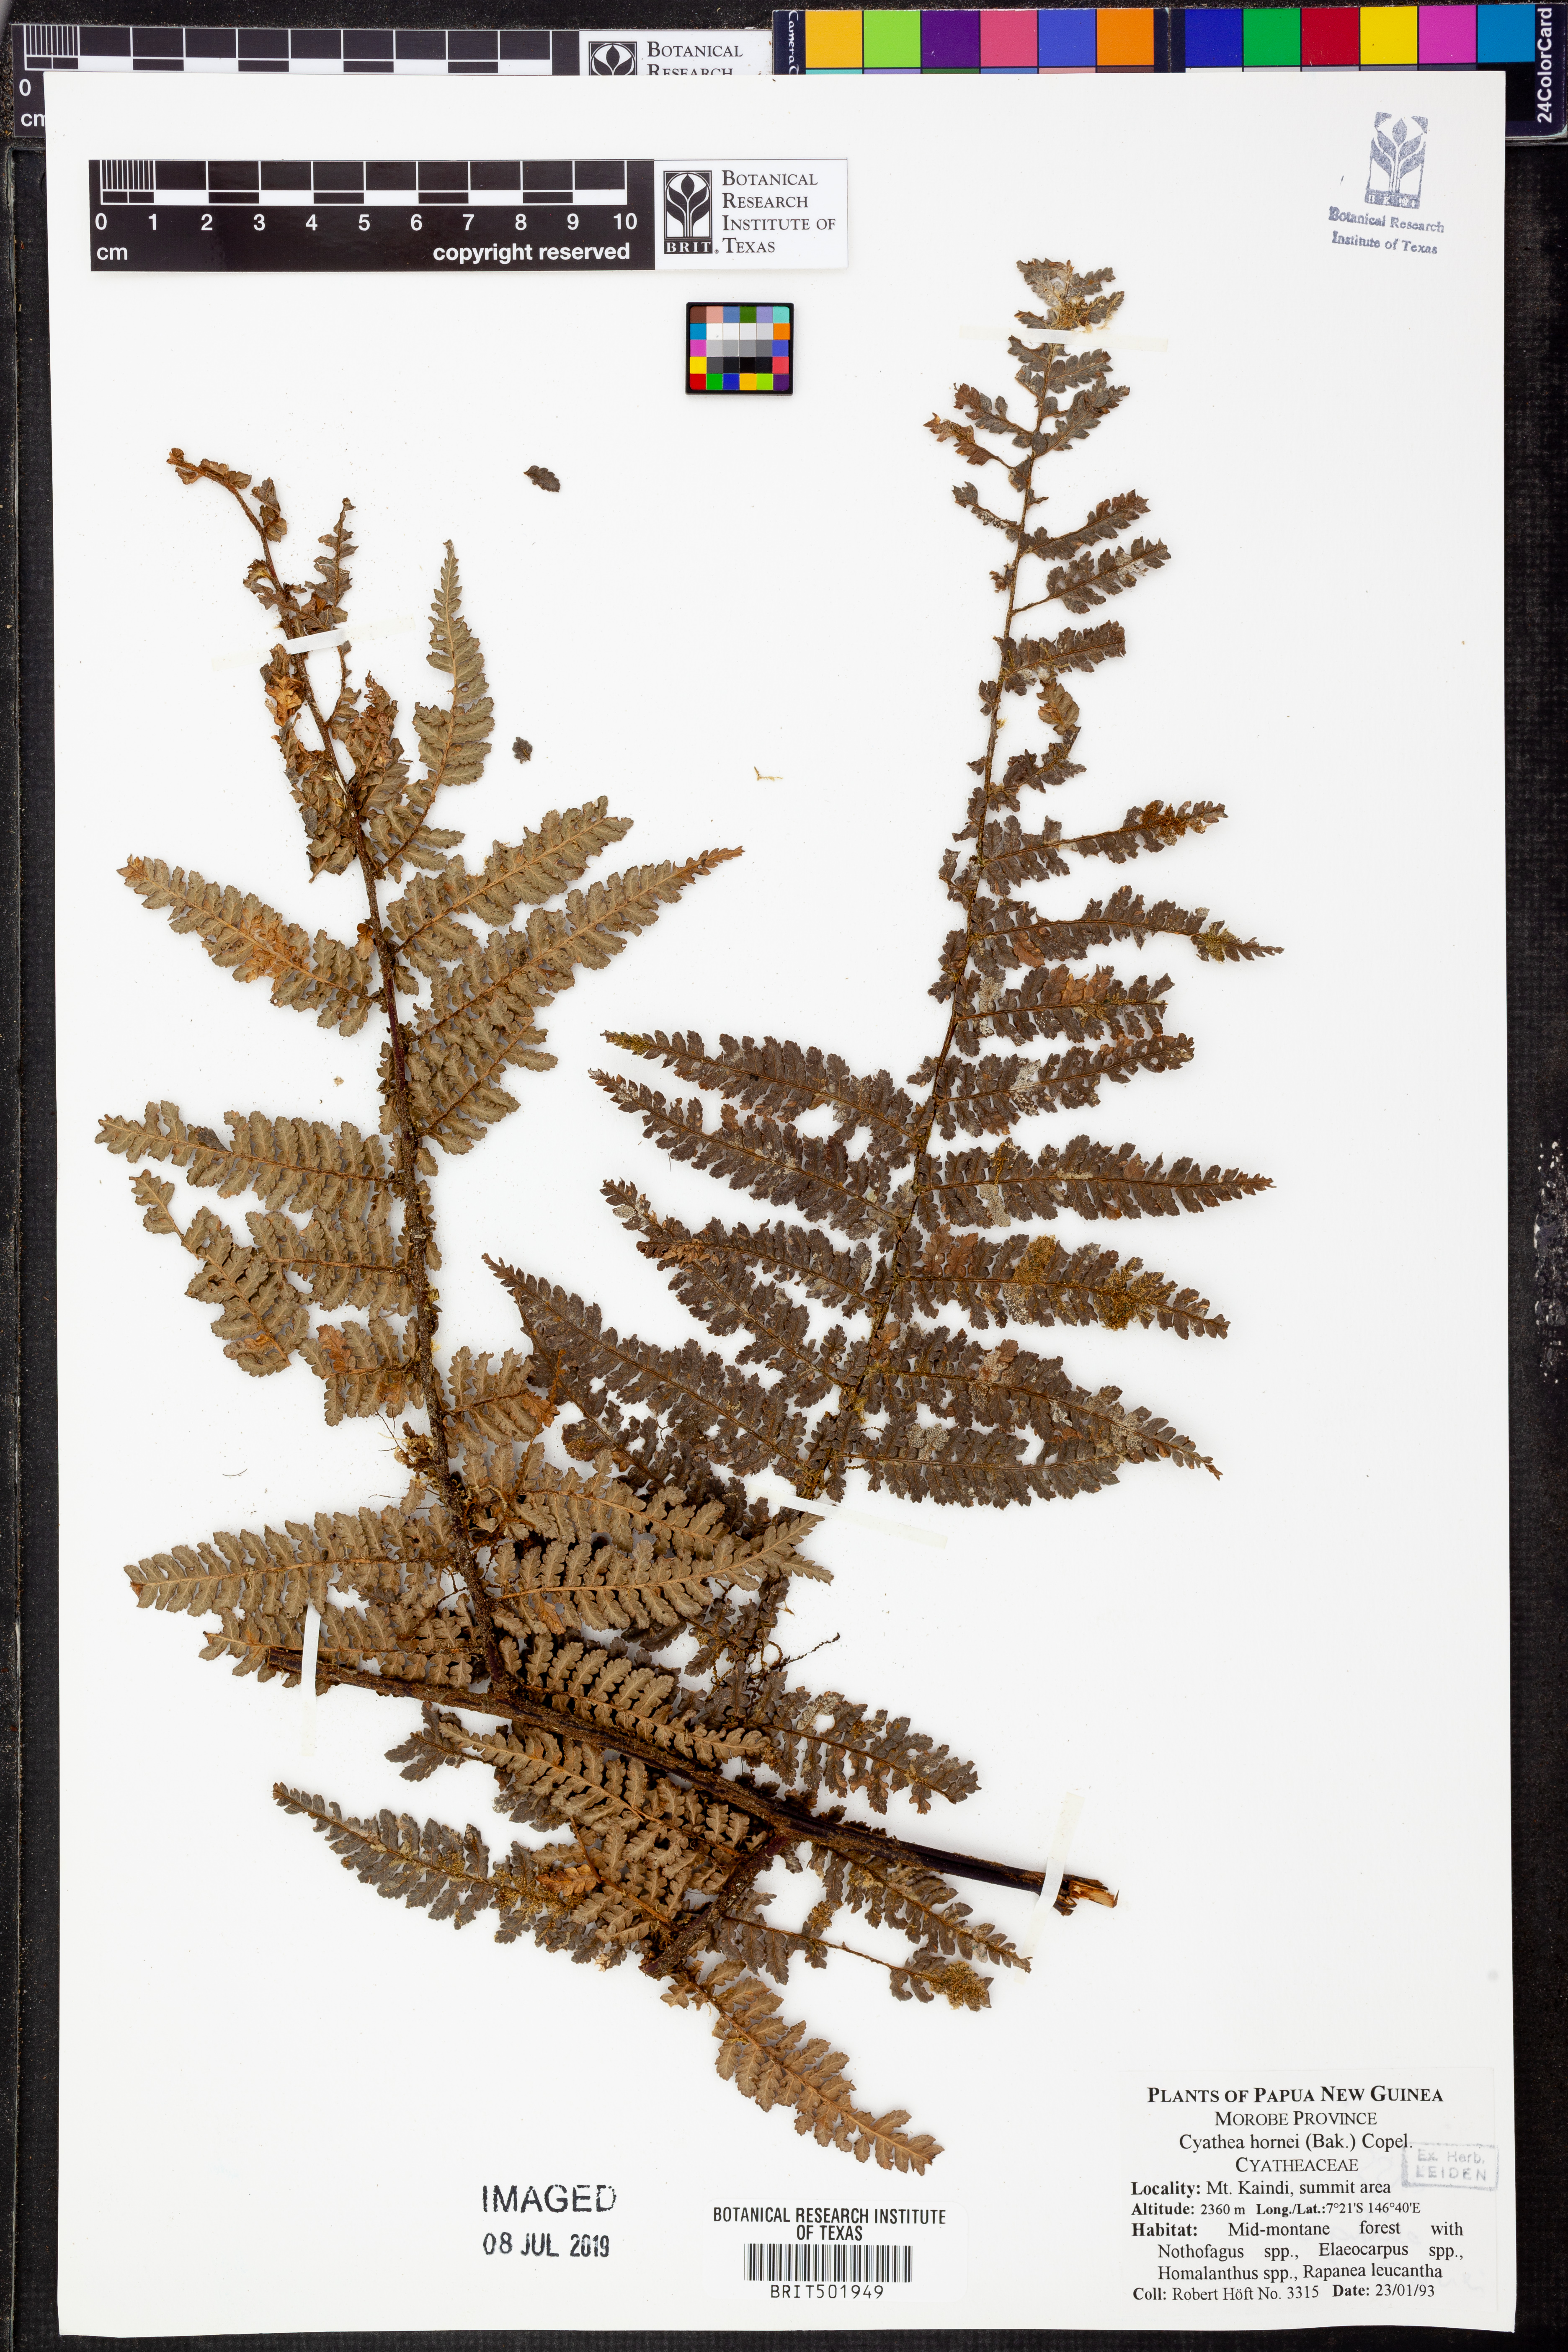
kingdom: Plantae
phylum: Tracheophyta
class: Polypodiopsida
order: Cyatheales
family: Cyatheaceae
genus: Gymnosphaera
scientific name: Gymnosphaera hornei
